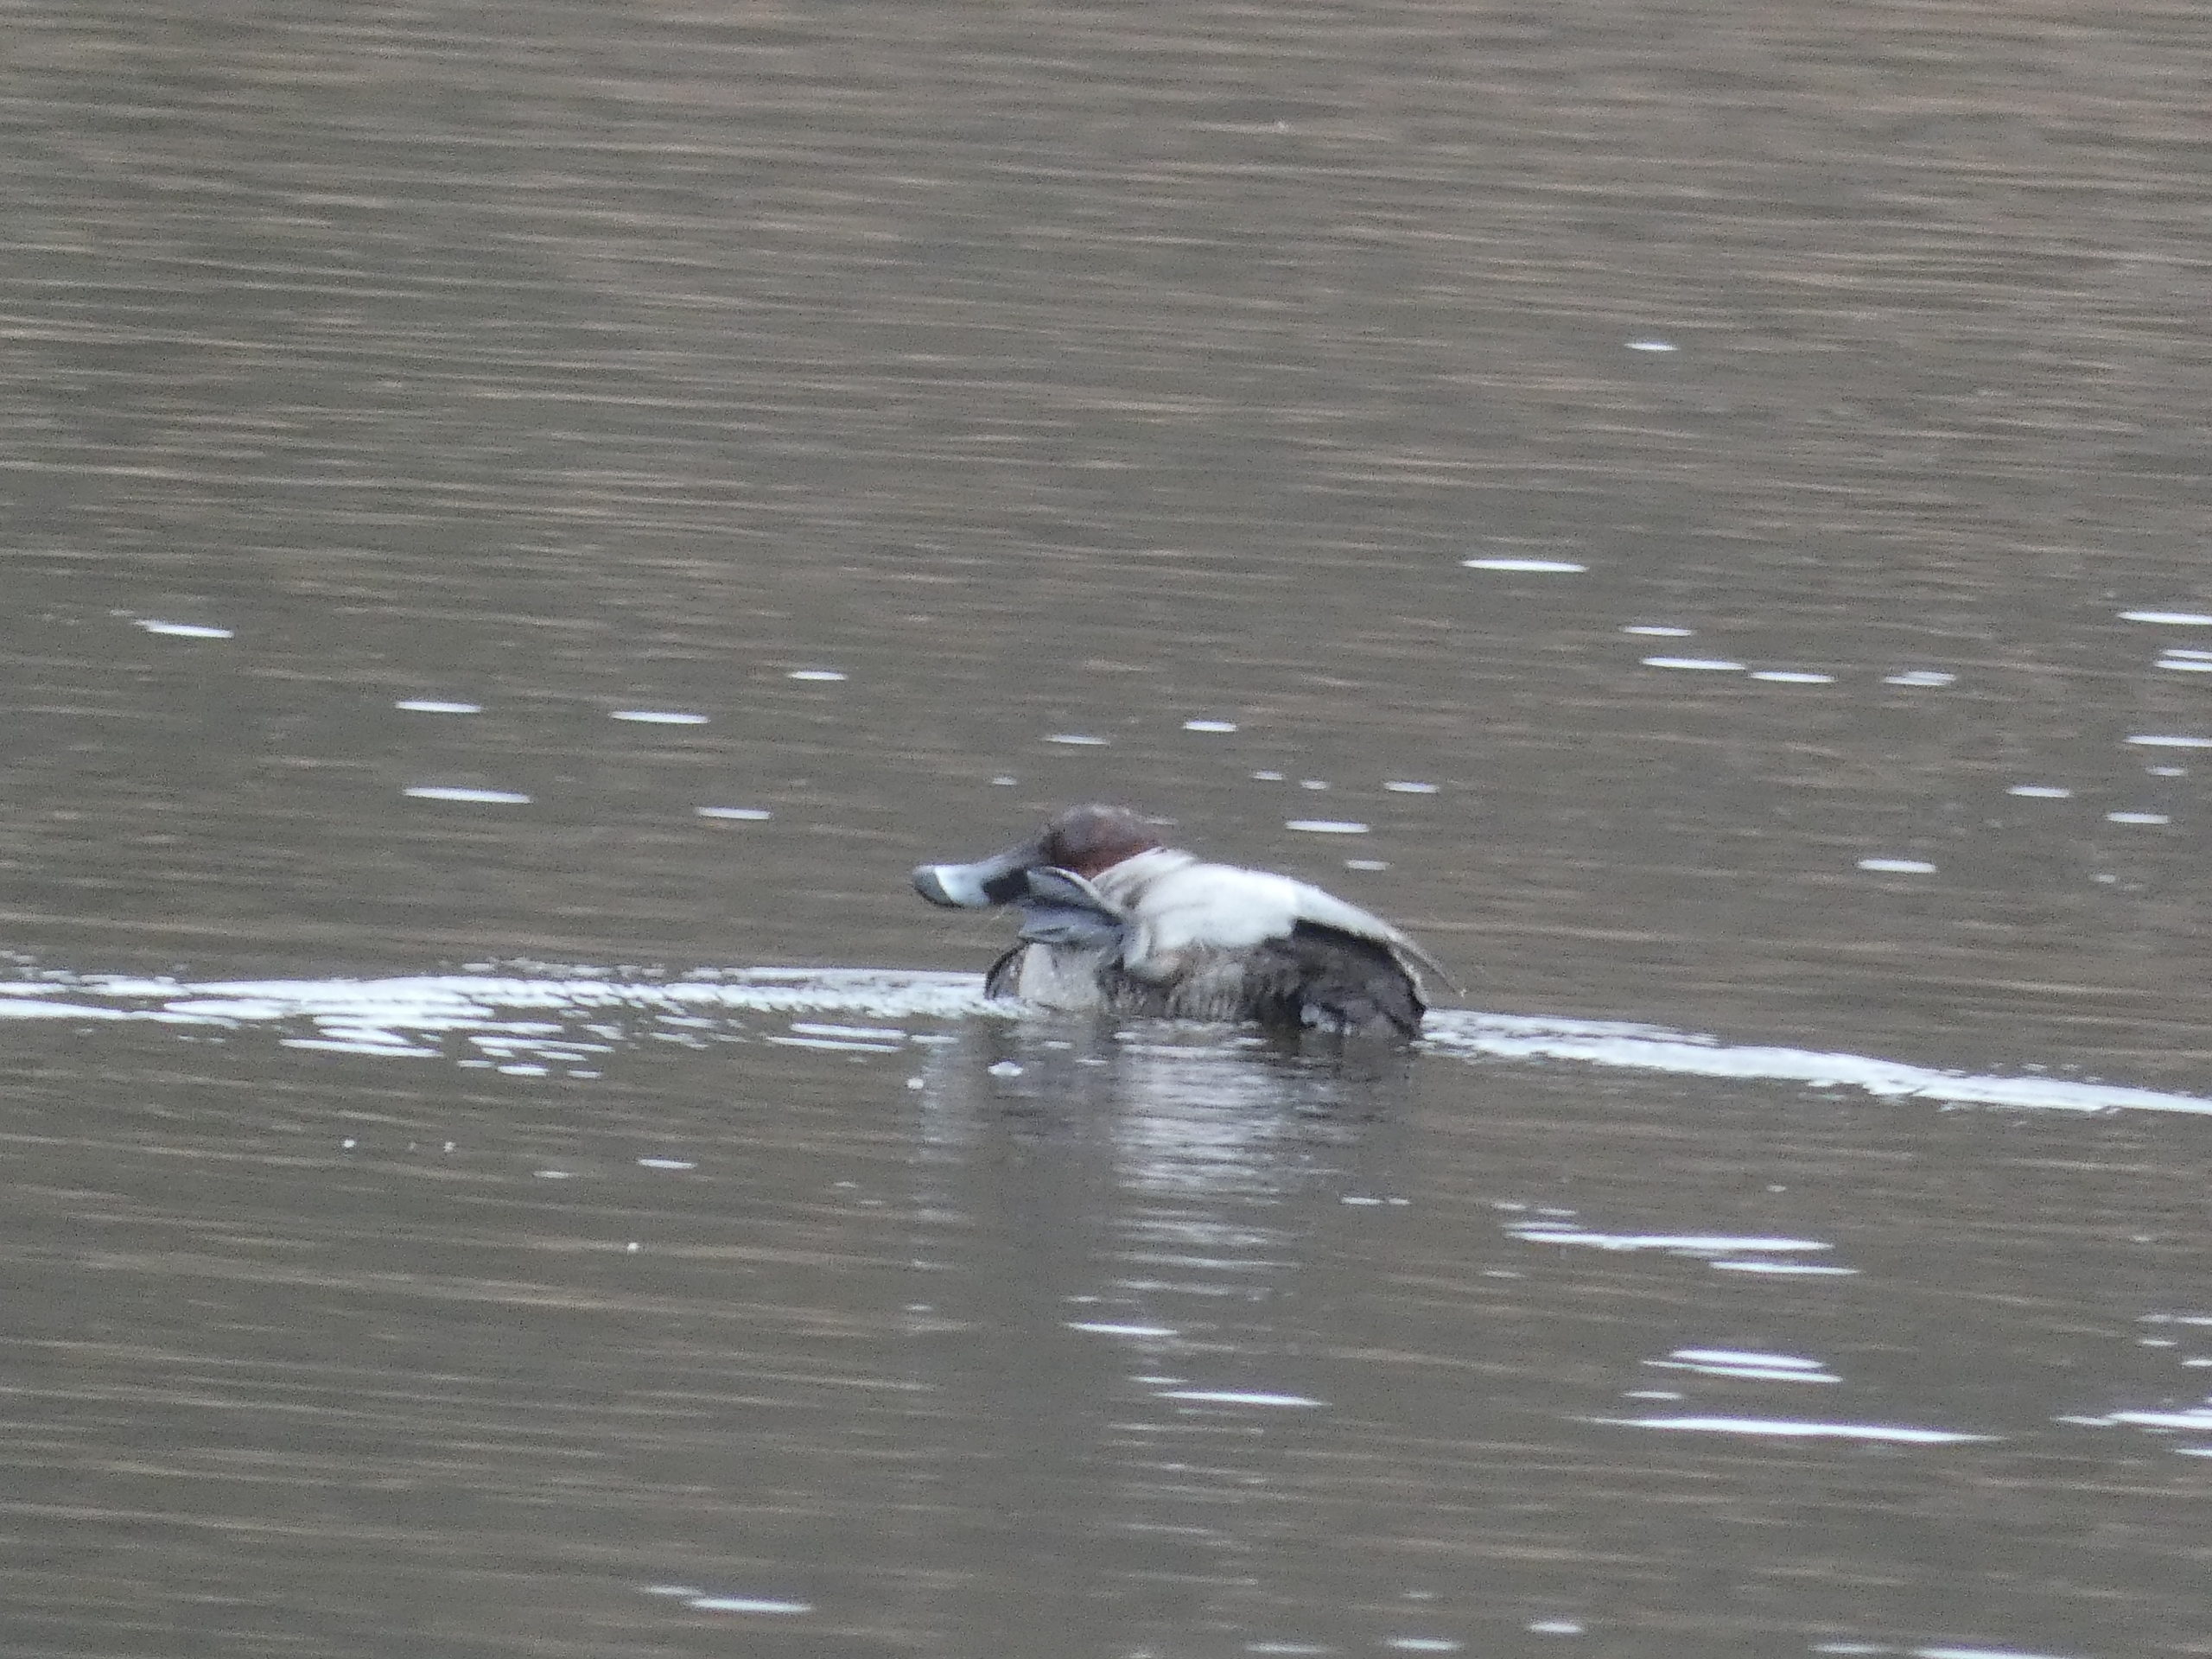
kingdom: Animalia
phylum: Chordata
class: Aves
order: Anseriformes
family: Anatidae
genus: Aythya
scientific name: Aythya ferina
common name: Taffeland
